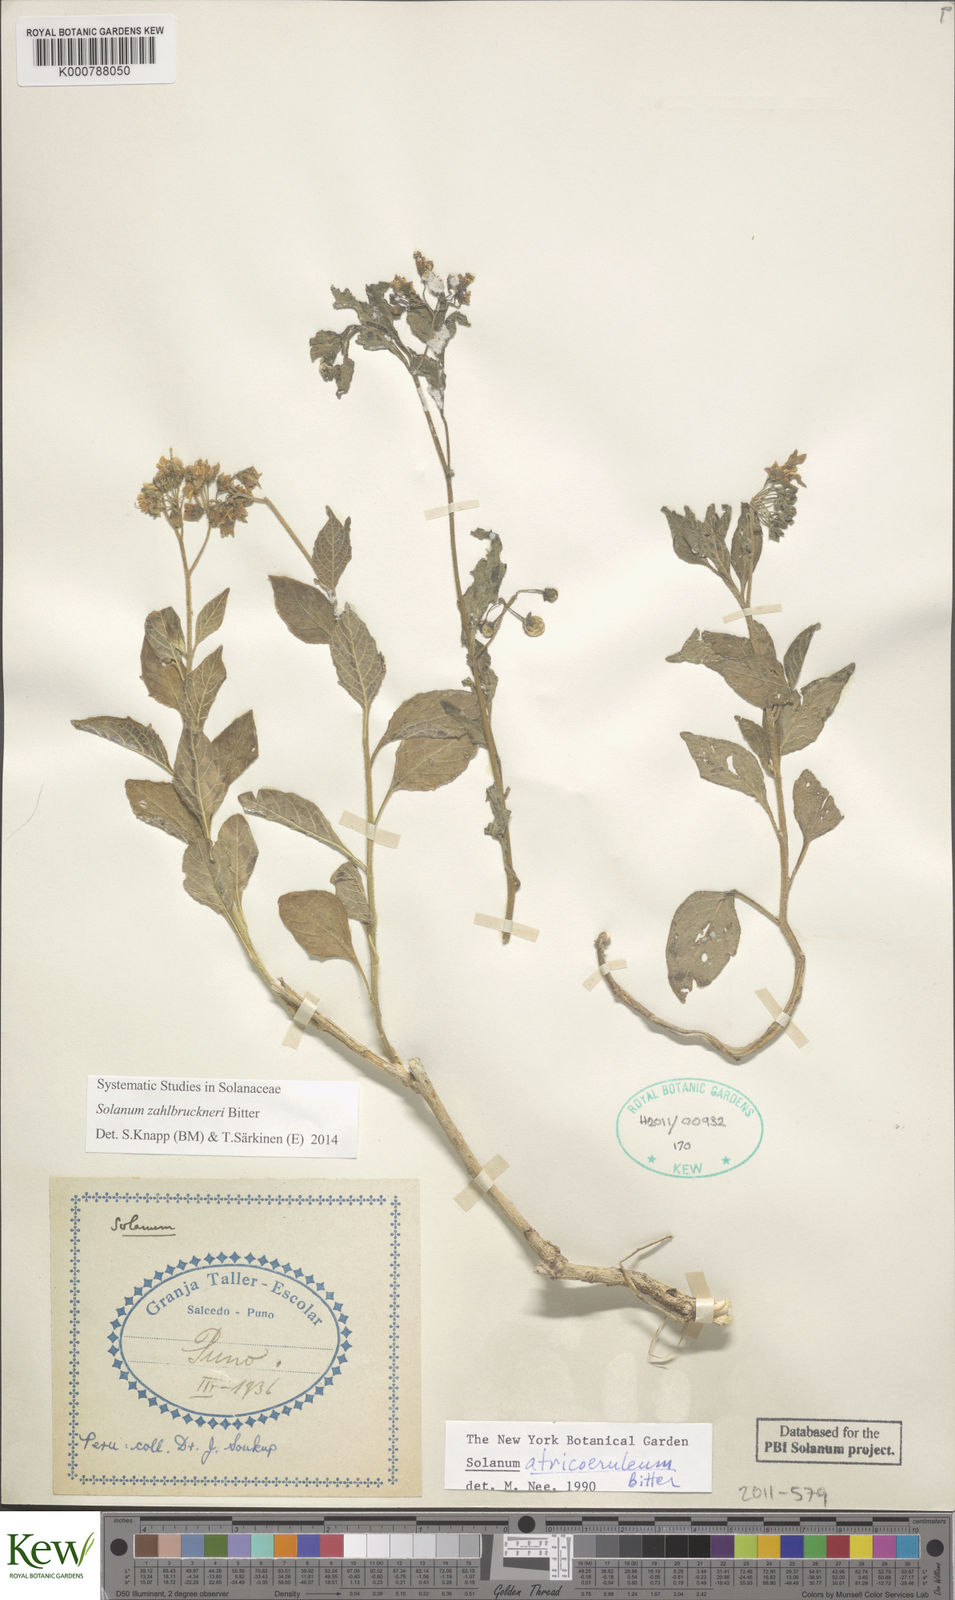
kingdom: Plantae
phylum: Tracheophyta
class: Magnoliopsida
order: Solanales
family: Solanaceae
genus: Solanum
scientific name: Solanum aloysiifolium
